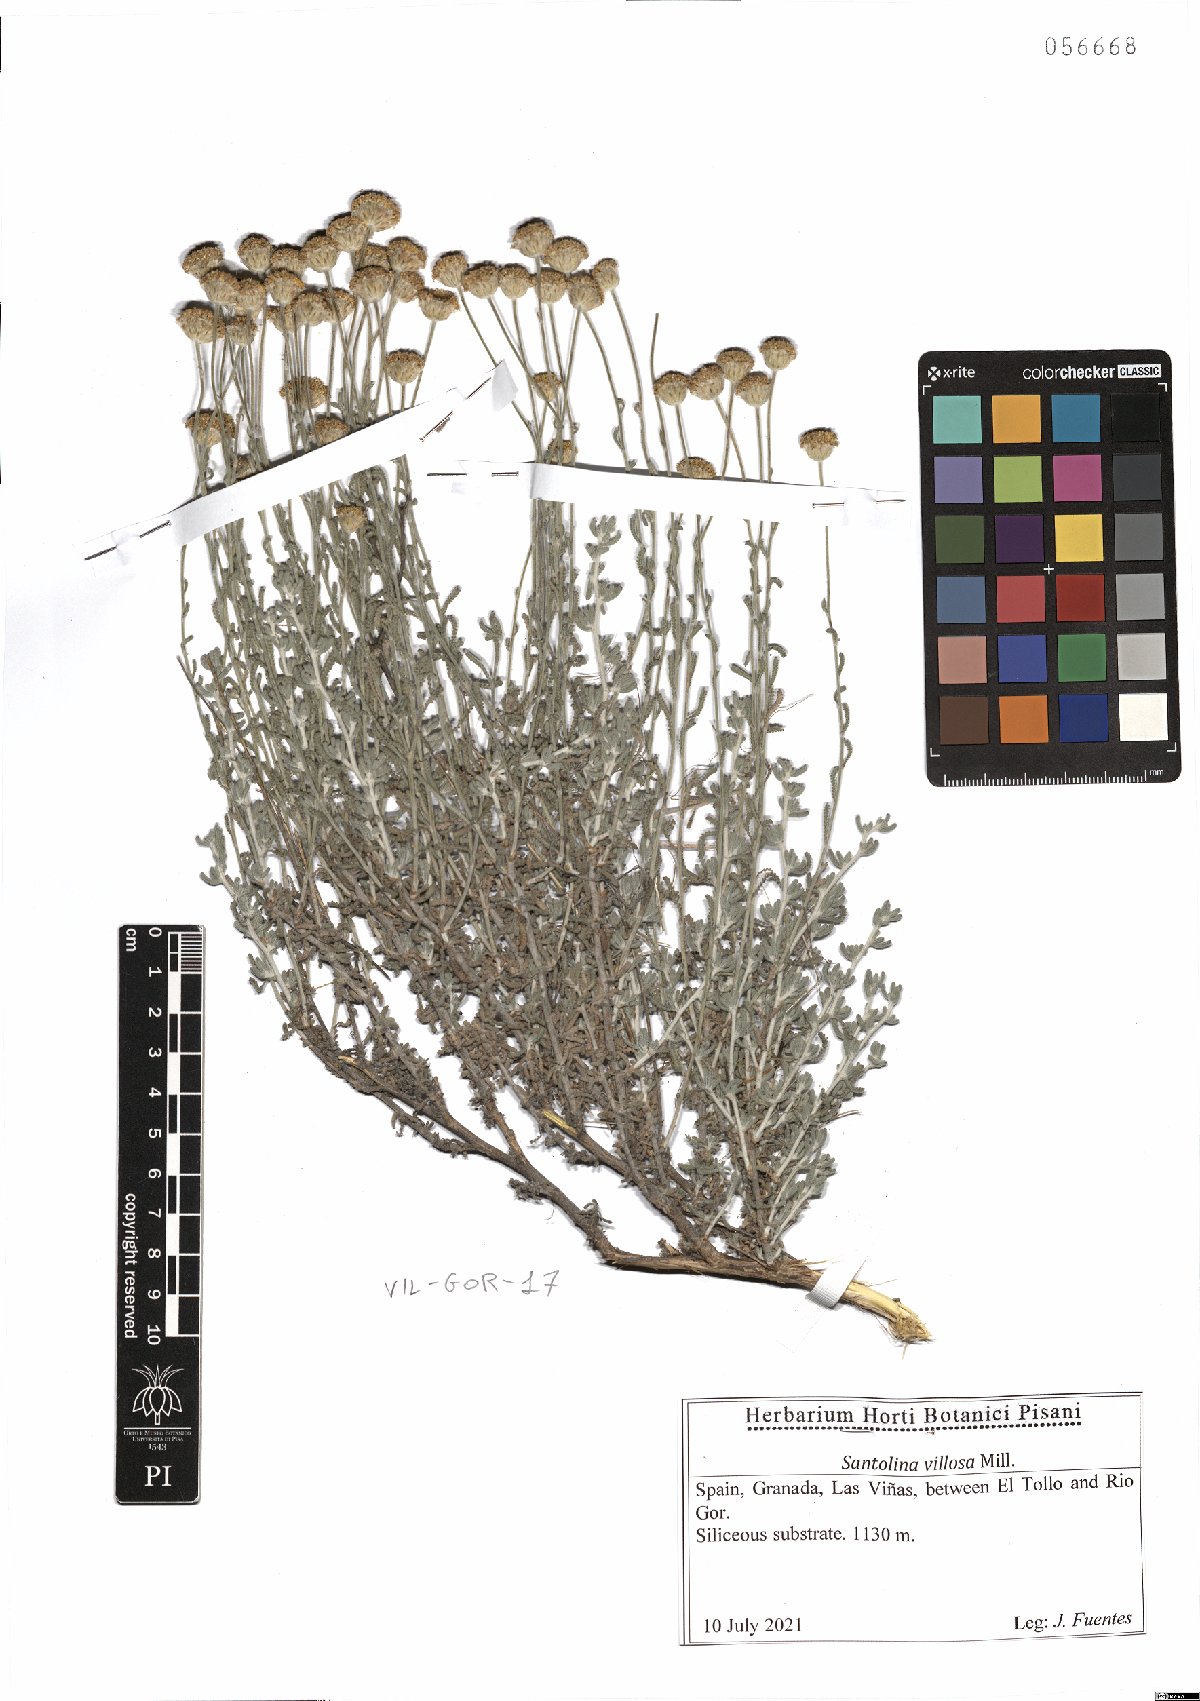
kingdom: Plantae
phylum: Tracheophyta
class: Magnoliopsida
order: Asterales
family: Asteraceae
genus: Santolina
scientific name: Santolina chamaecyparissus
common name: Lavender-cotton
